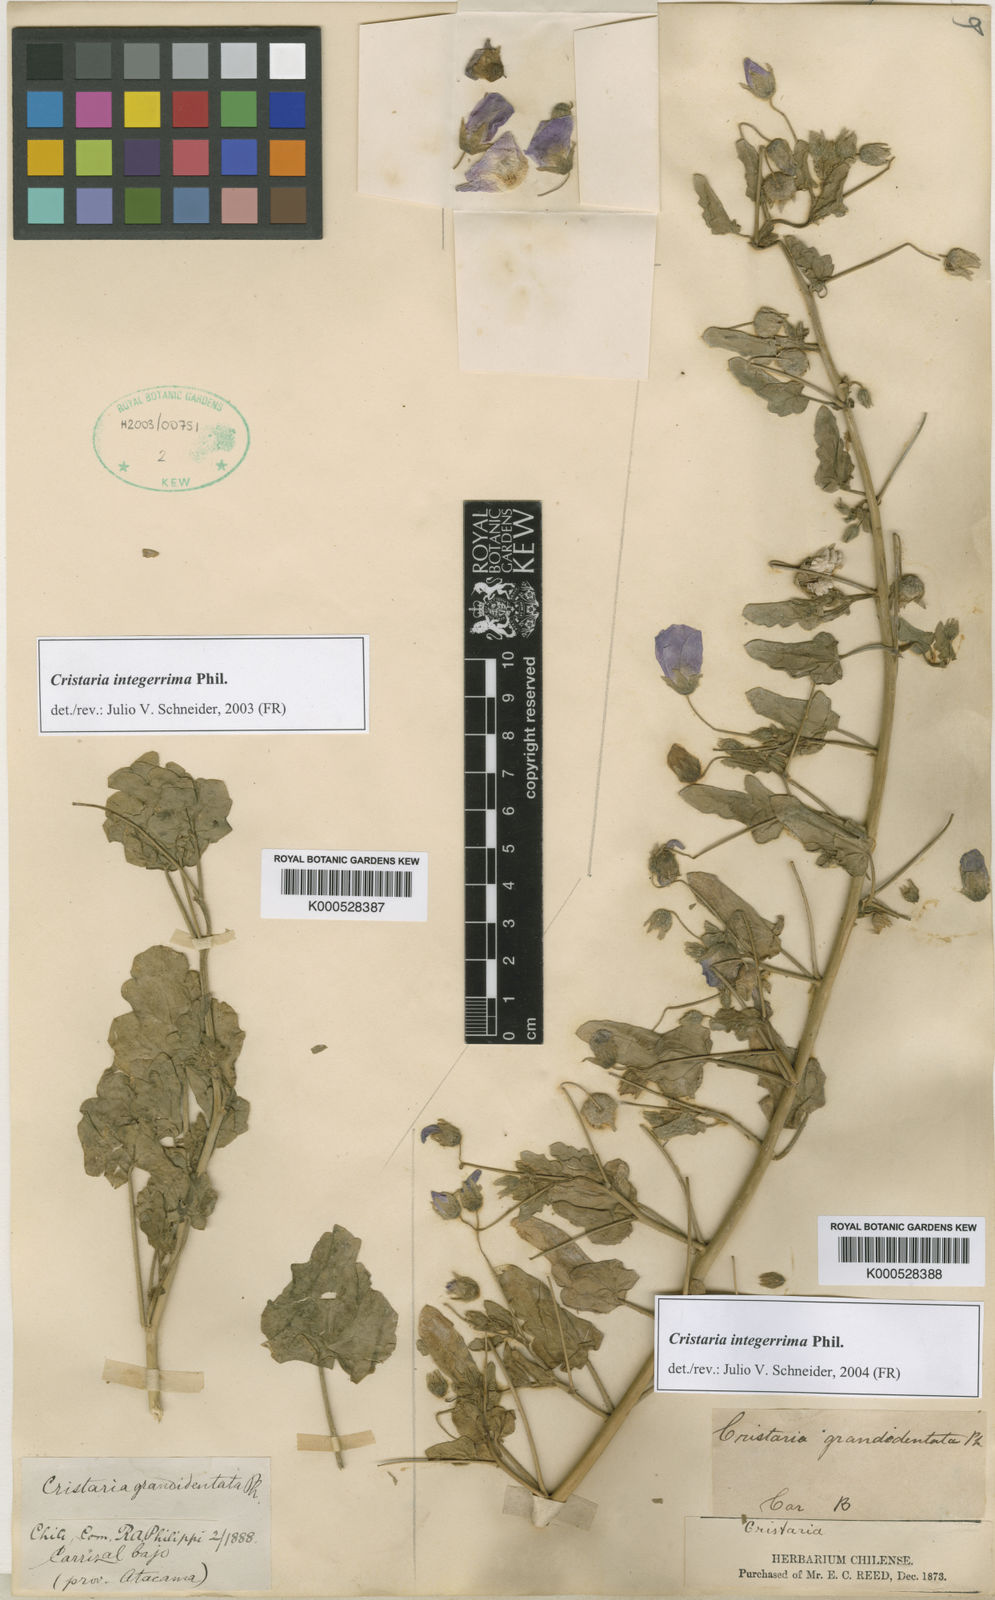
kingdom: Plantae
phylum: Tracheophyta
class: Magnoliopsida
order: Malvales
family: Malvaceae
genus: Cristaria
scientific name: Cristaria integerrima
